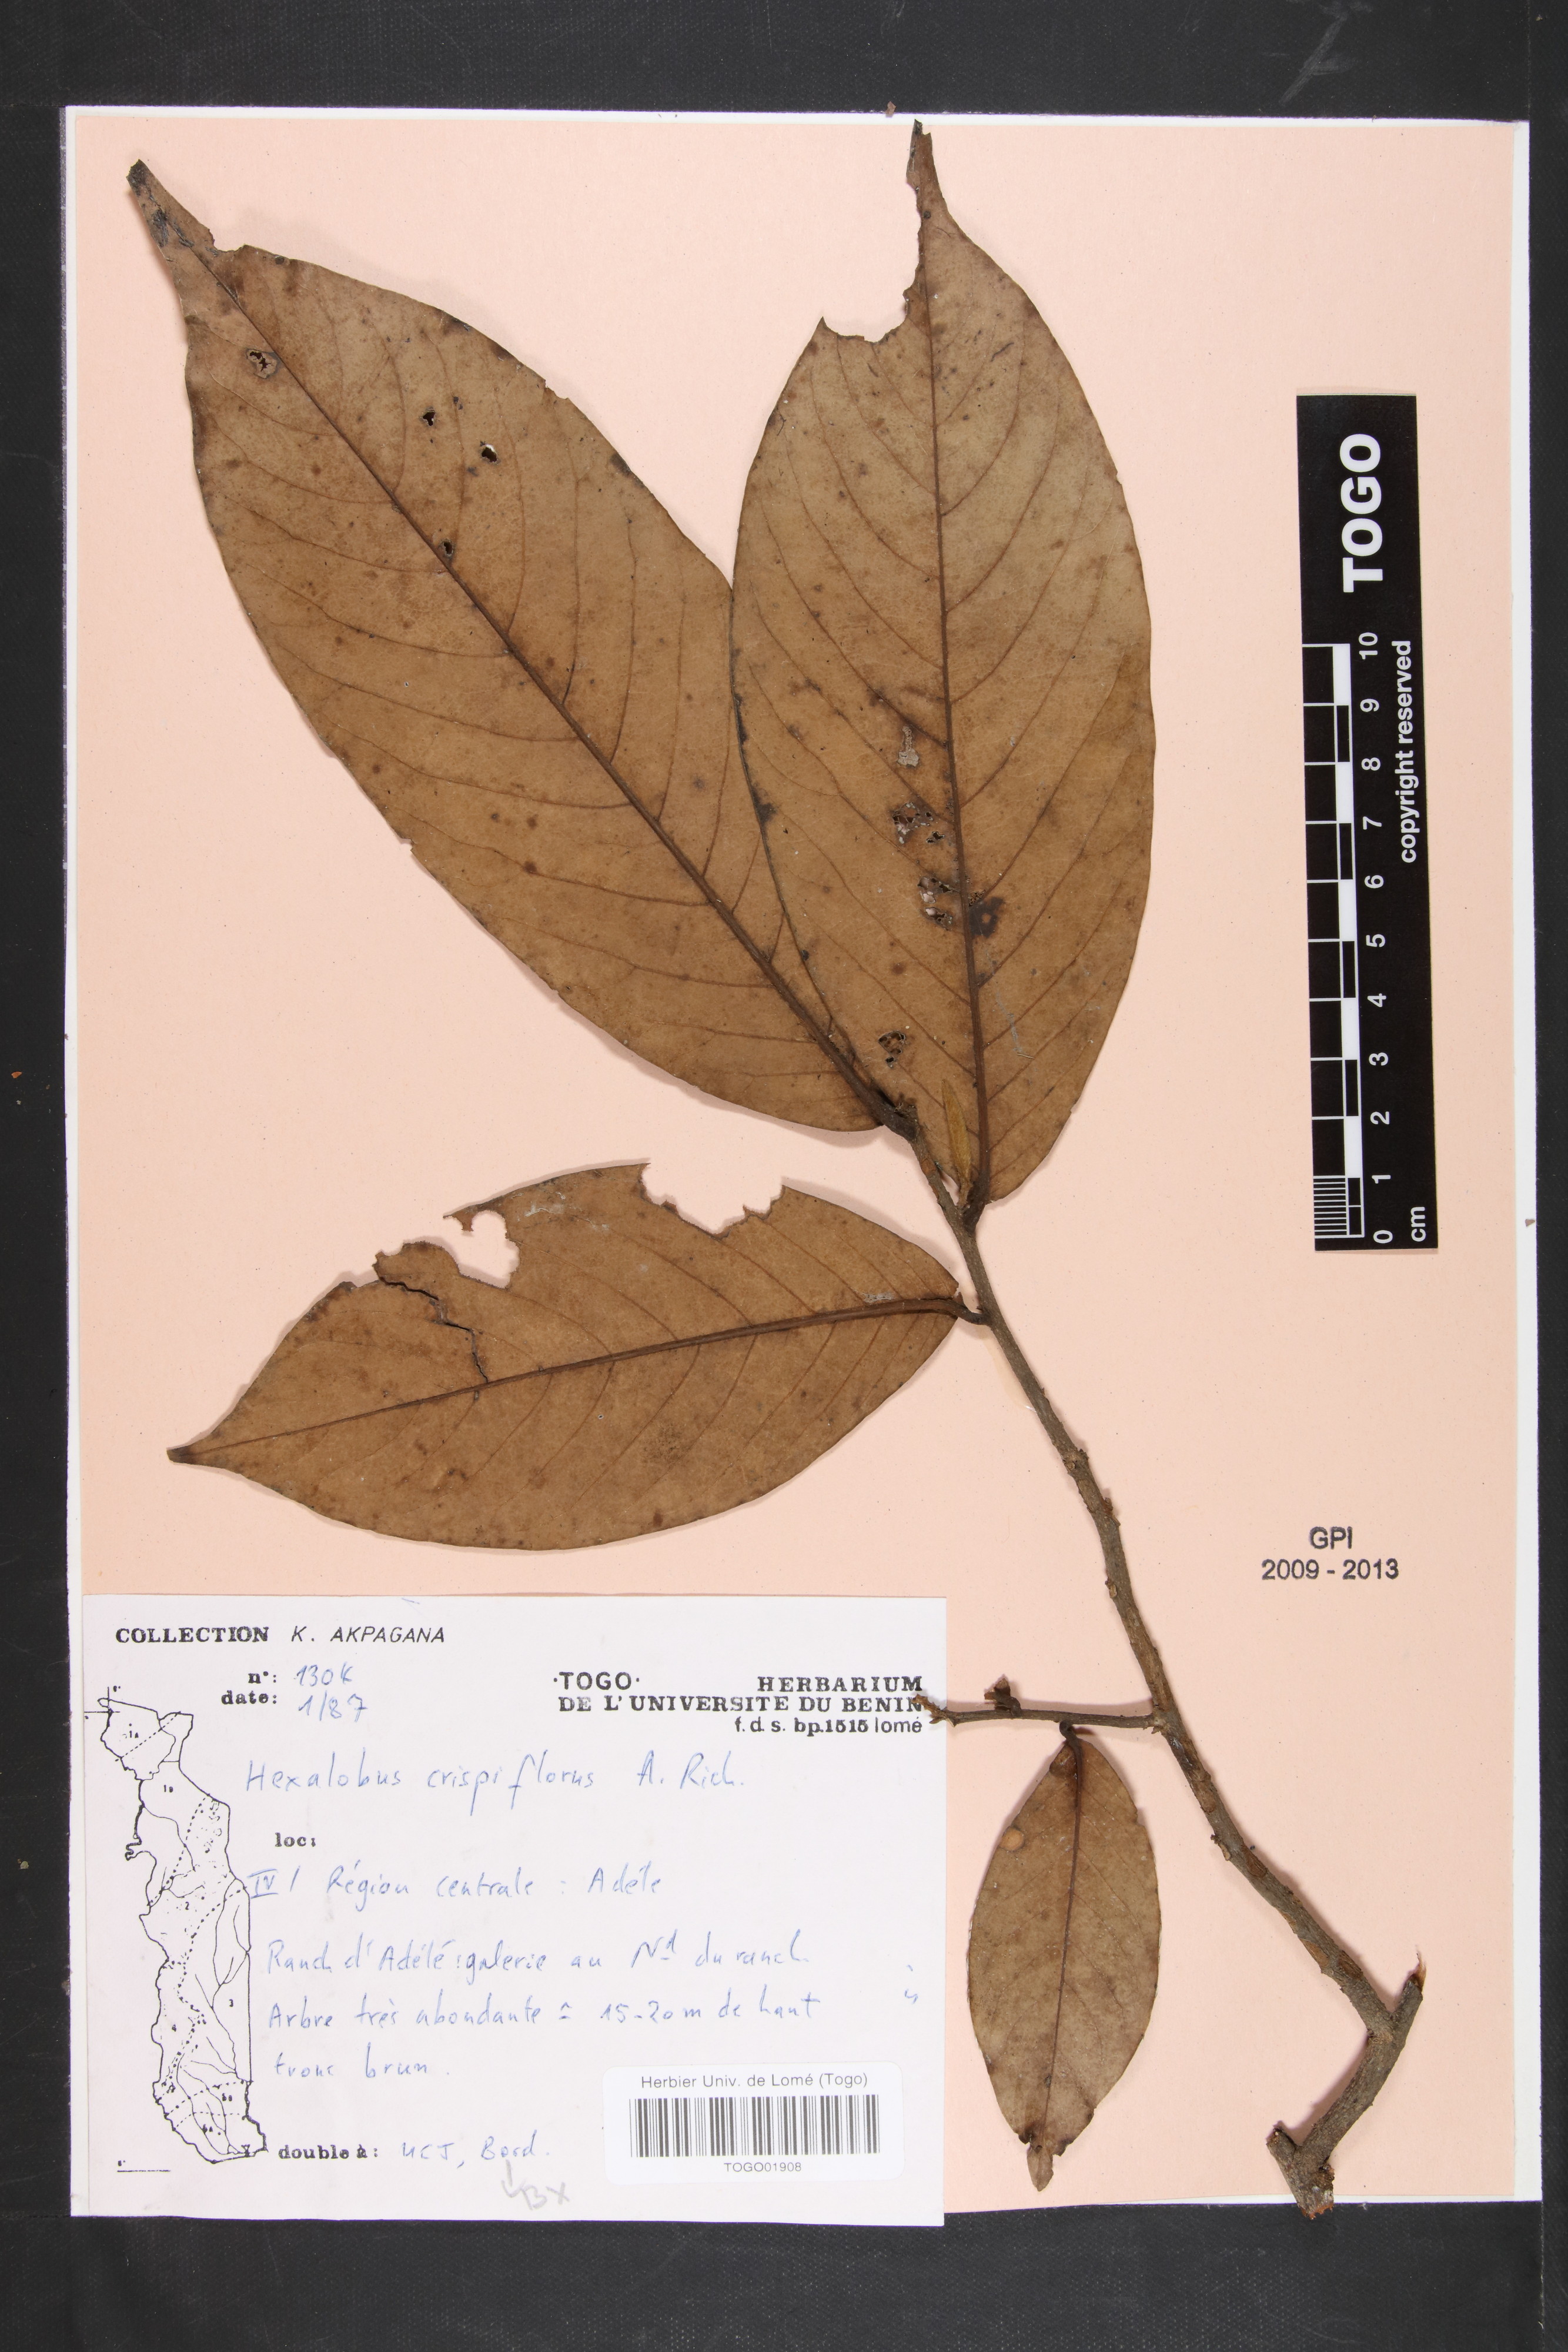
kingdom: Plantae
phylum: Tracheophyta
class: Magnoliopsida
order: Magnoliales
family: Annonaceae
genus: Uvariopsis
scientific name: Uvariopsis tripetala
